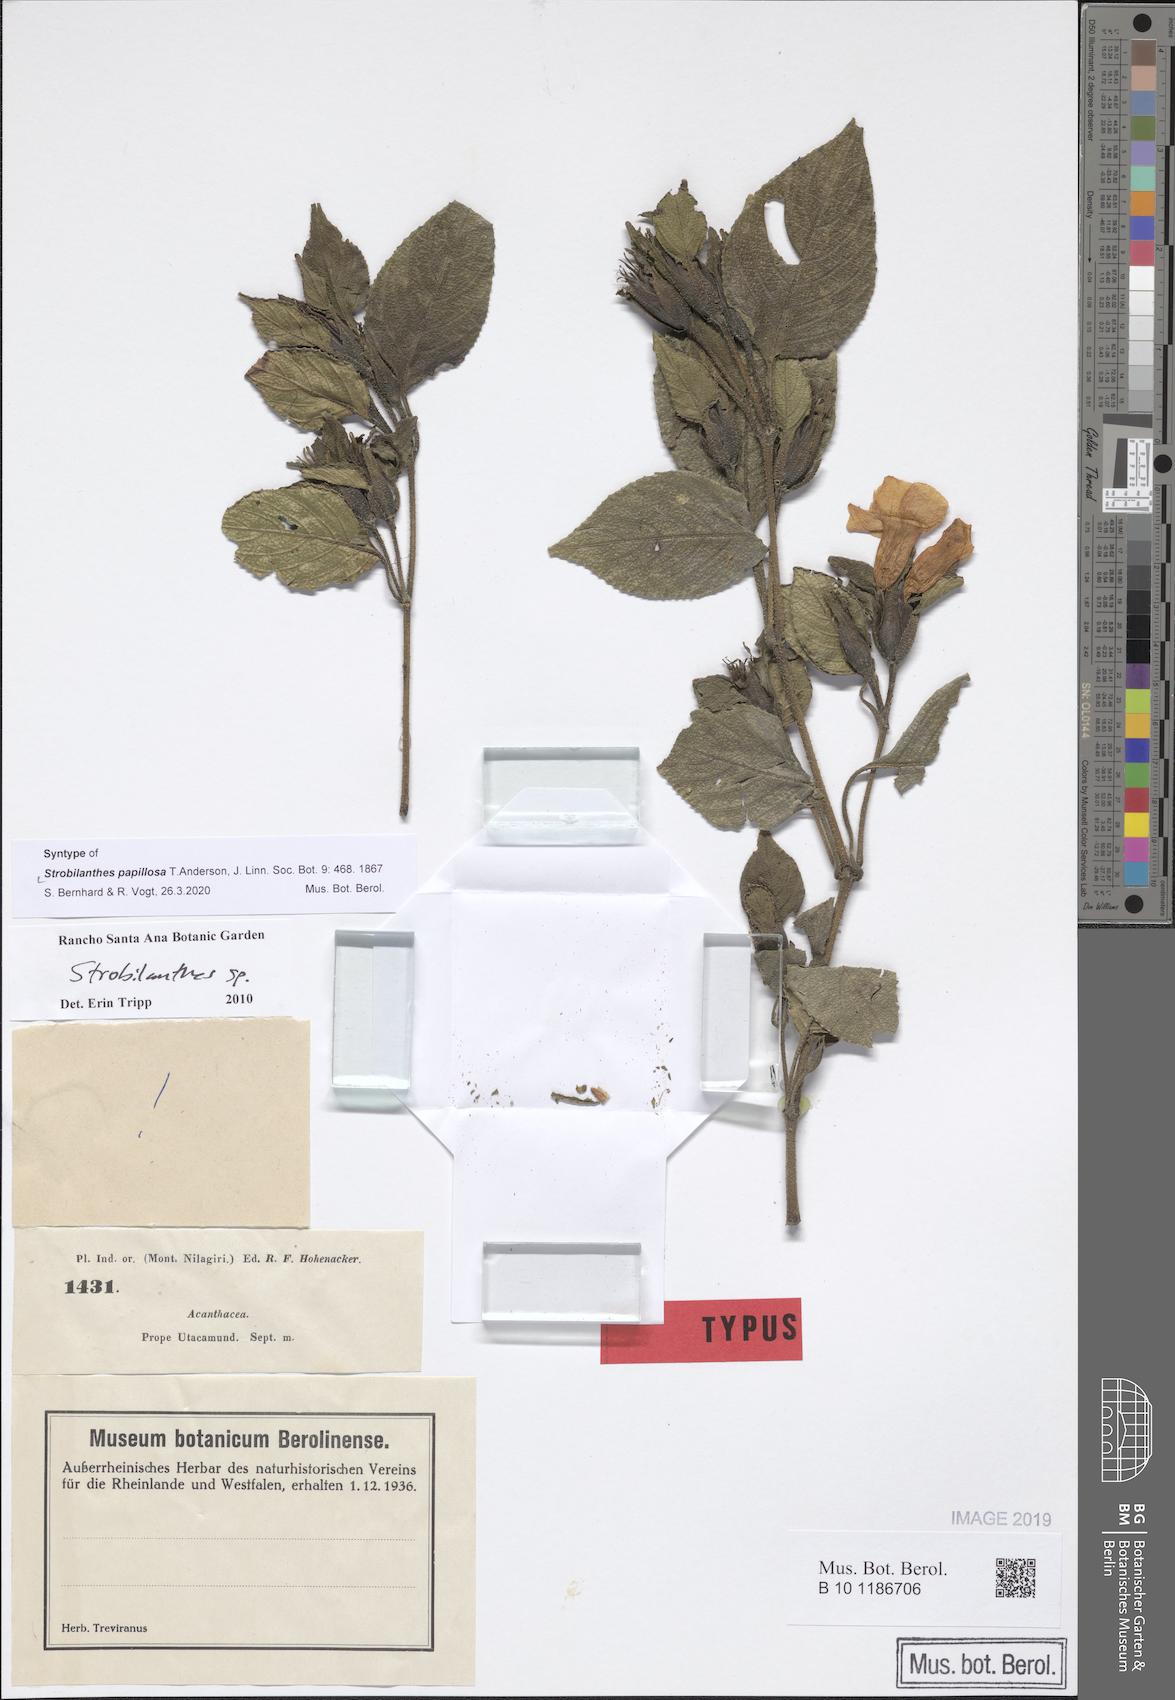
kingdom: Plantae
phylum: Tracheophyta
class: Magnoliopsida
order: Lamiales
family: Acanthaceae
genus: Strobilanthes
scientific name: Strobilanthes papillosa
